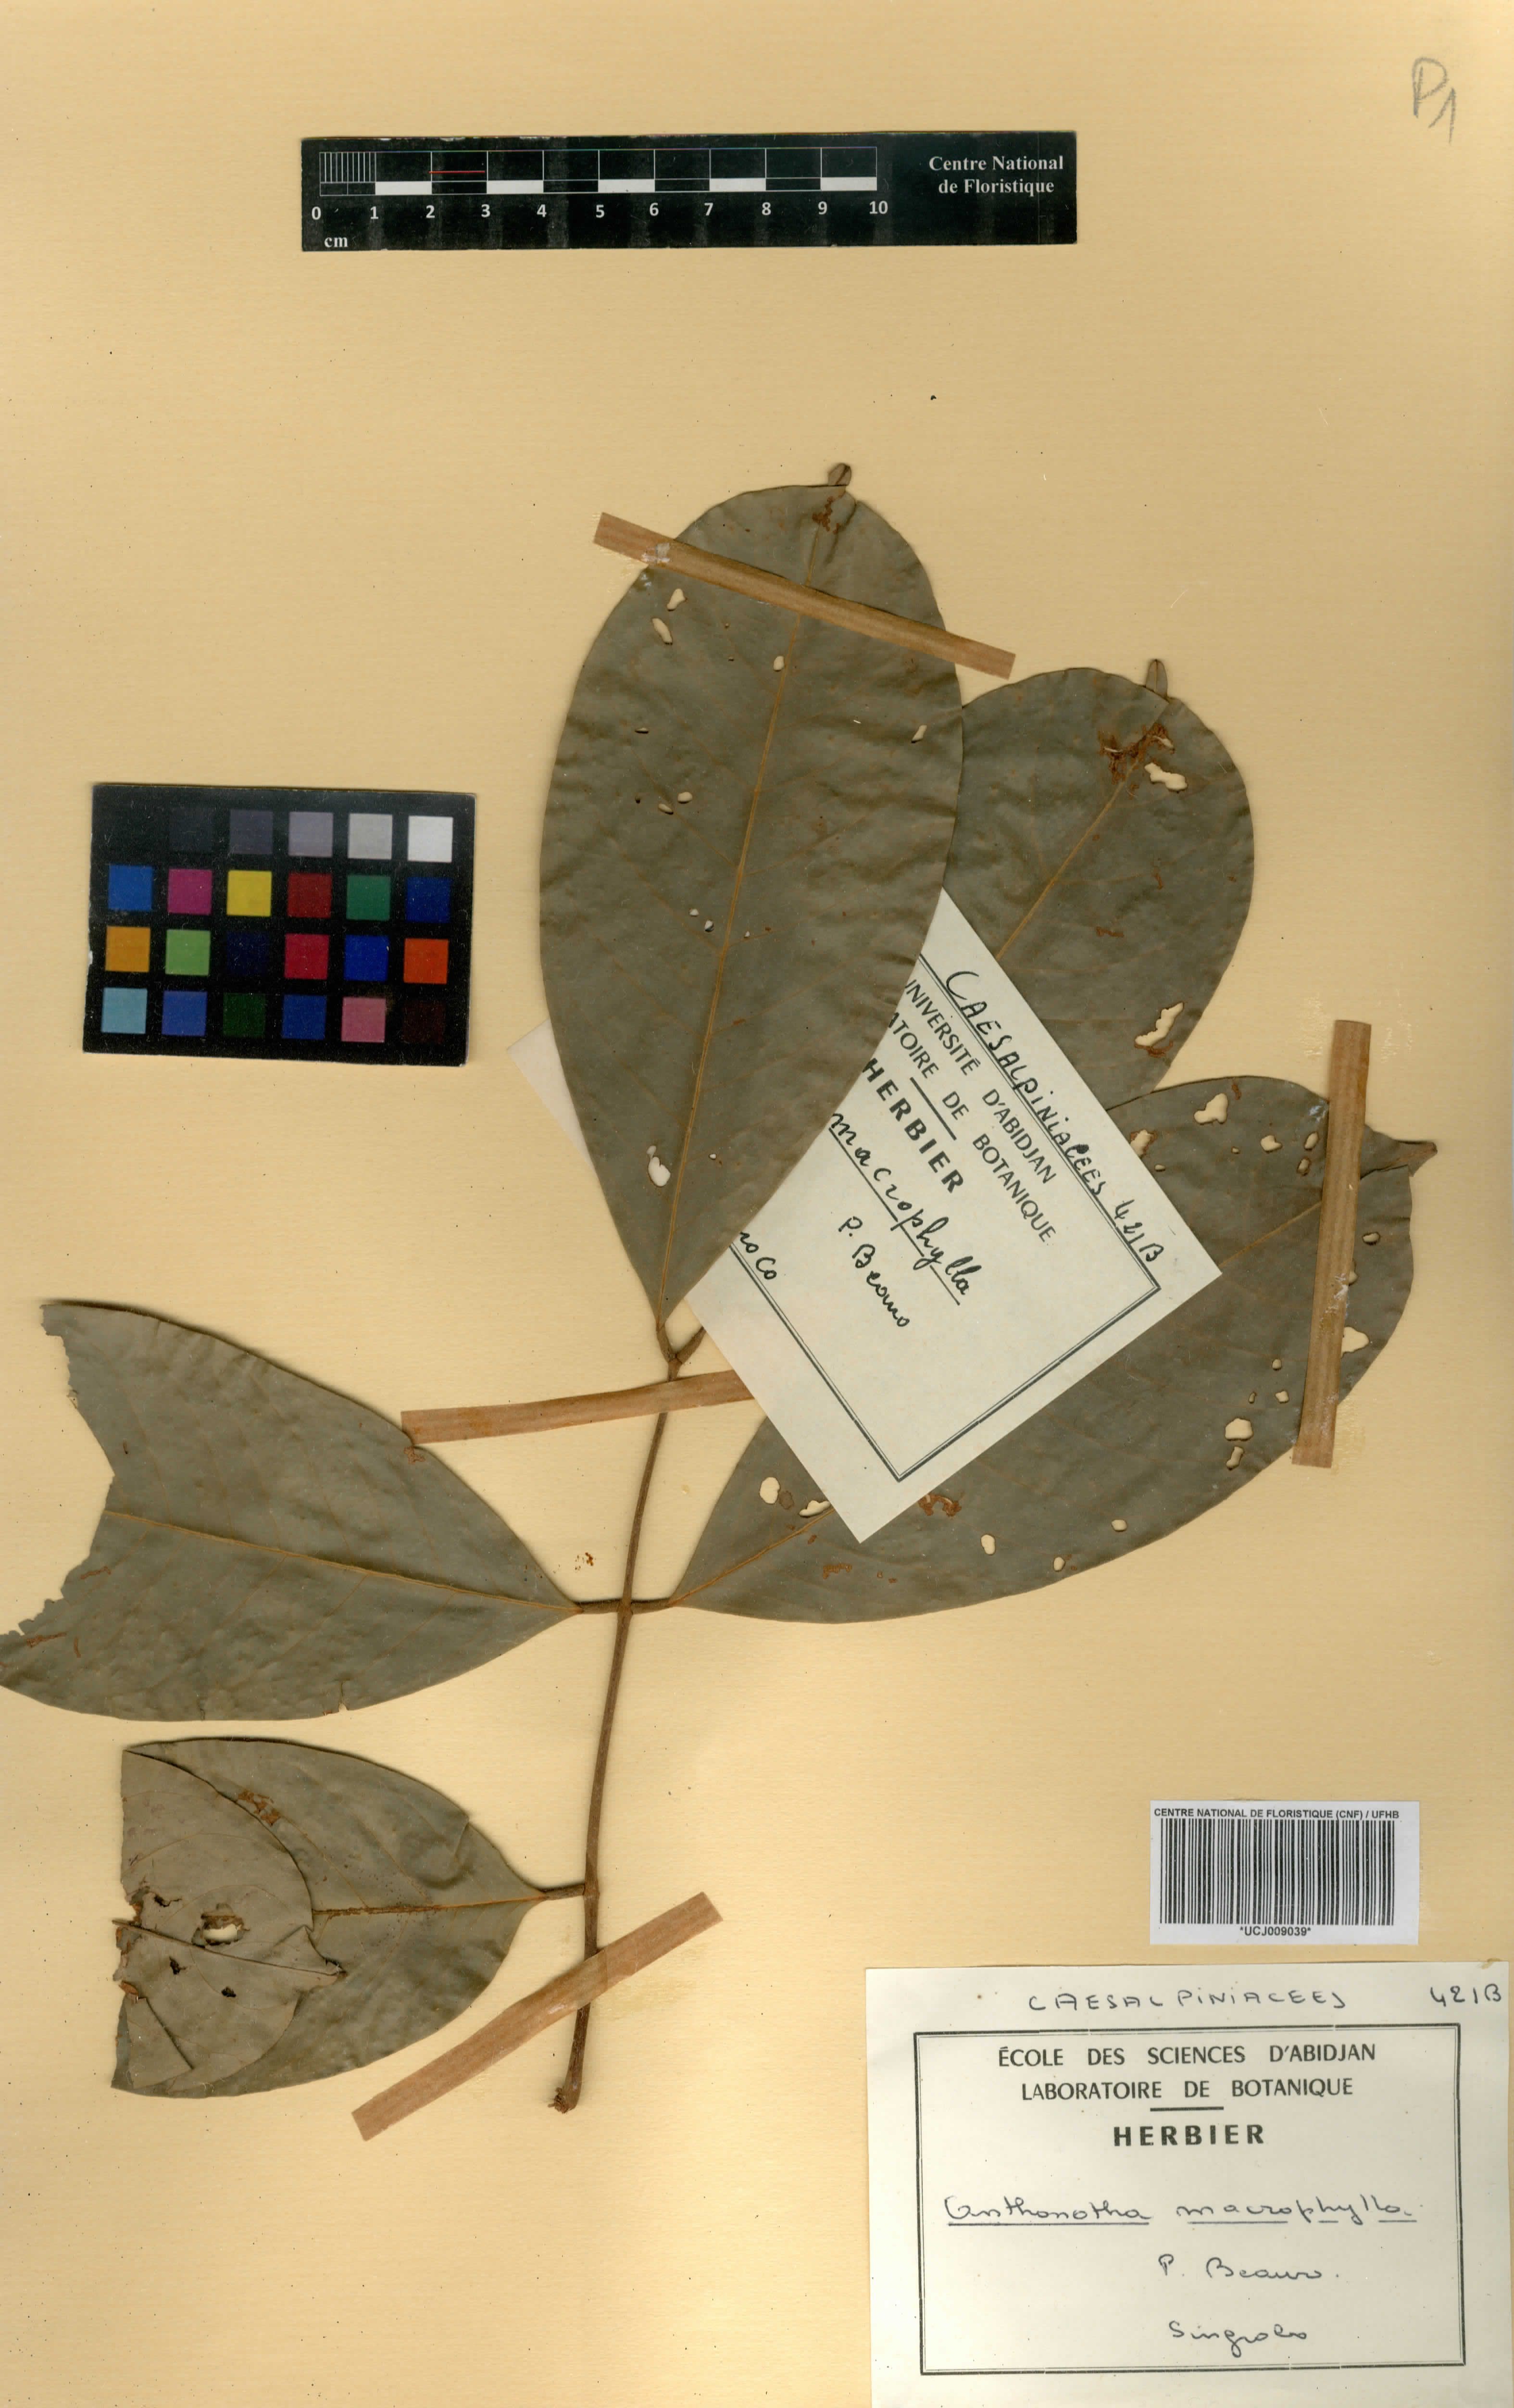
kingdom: Plantae
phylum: Tracheophyta
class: Magnoliopsida
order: Fabales
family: Fabaceae
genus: Anthonotha
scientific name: Anthonotha macrophylla
